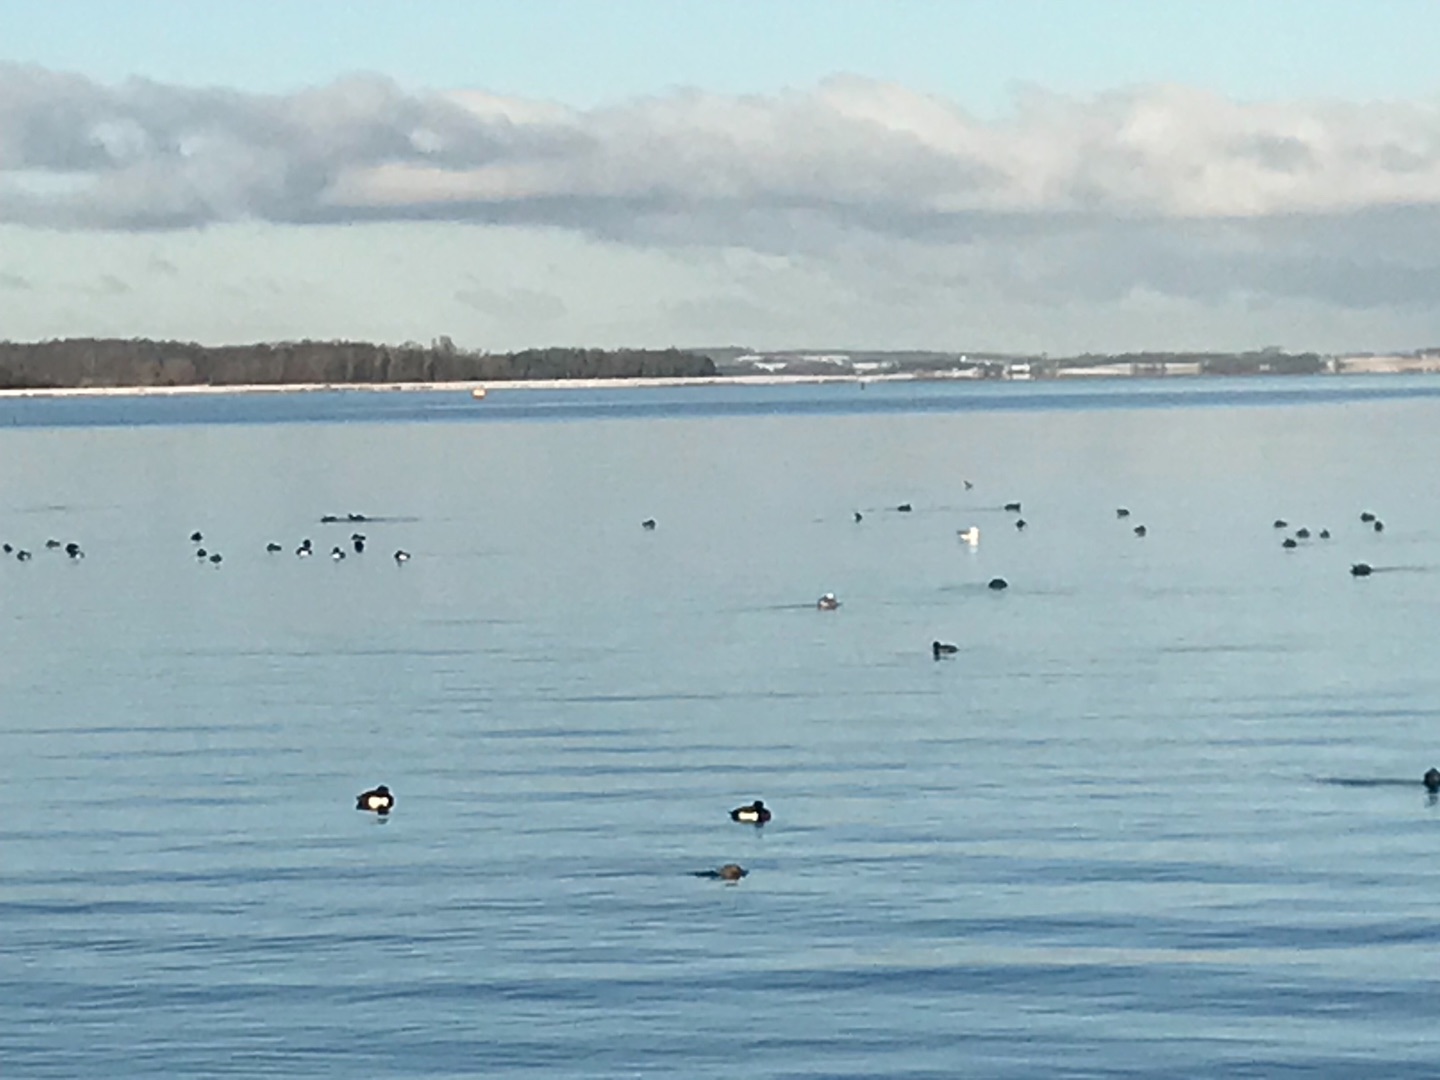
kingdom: Animalia
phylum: Chordata
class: Aves
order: Anseriformes
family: Anatidae
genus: Aythya
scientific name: Aythya fuligula
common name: Troldand
